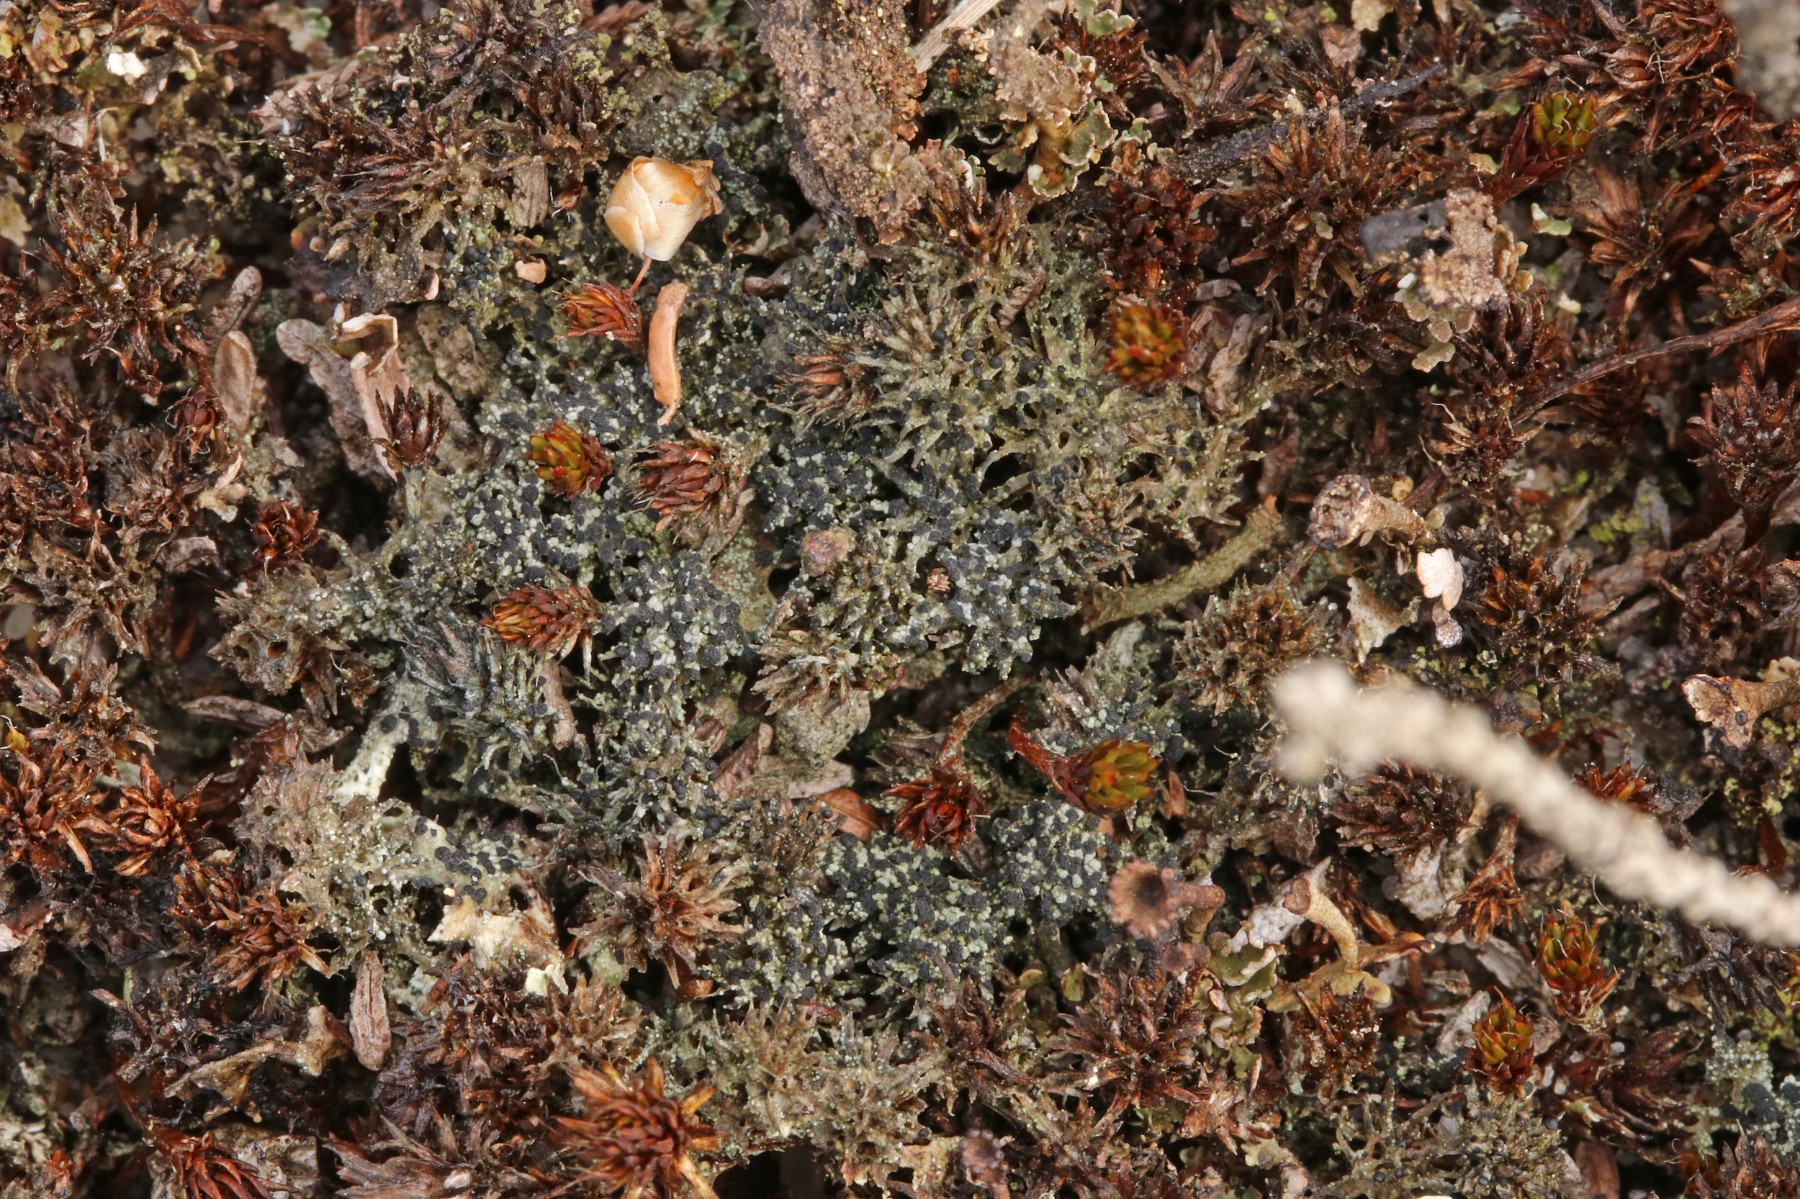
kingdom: Fungi
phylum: Ascomycota
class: Lecanoromycetes
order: Lecanorales
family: Byssolomataceae
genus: Micarea
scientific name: Micarea lignaria
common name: tørve-knaplav
